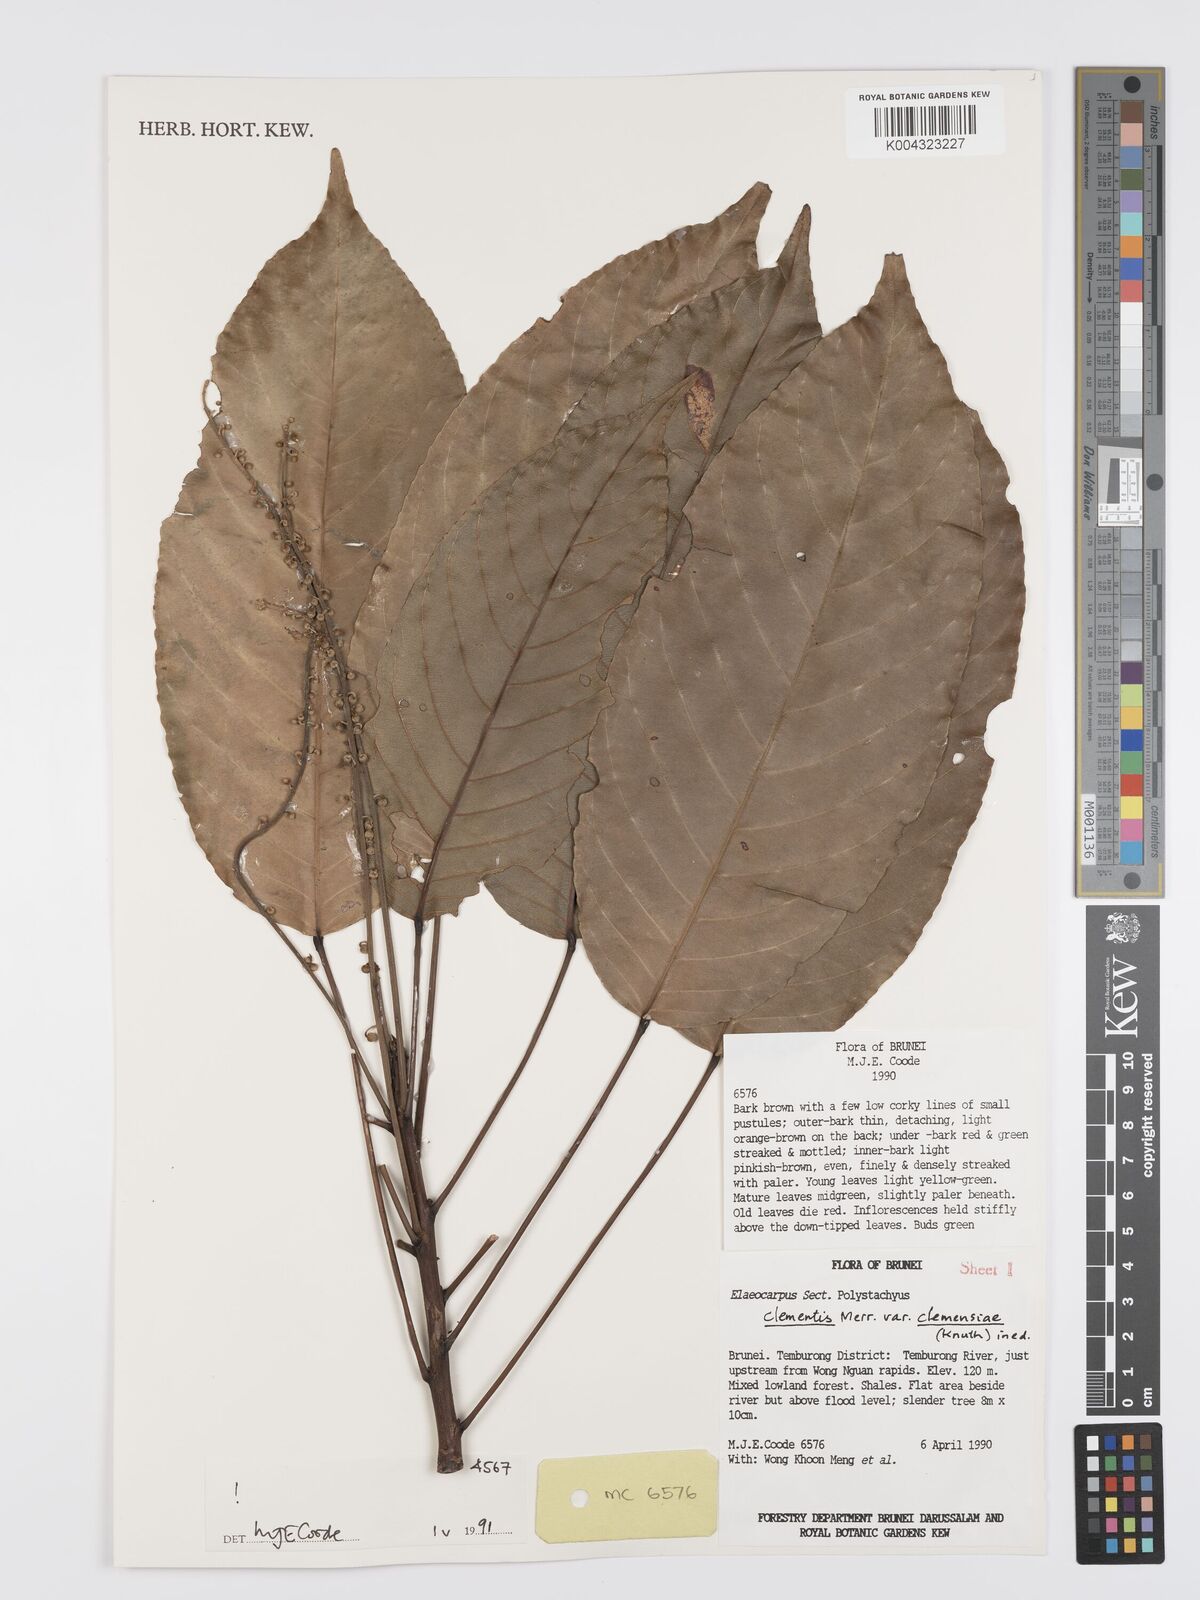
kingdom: Plantae
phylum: Tracheophyta
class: Magnoliopsida
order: Oxalidales
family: Elaeocarpaceae
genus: Elaeocarpus
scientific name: Elaeocarpus clementis
